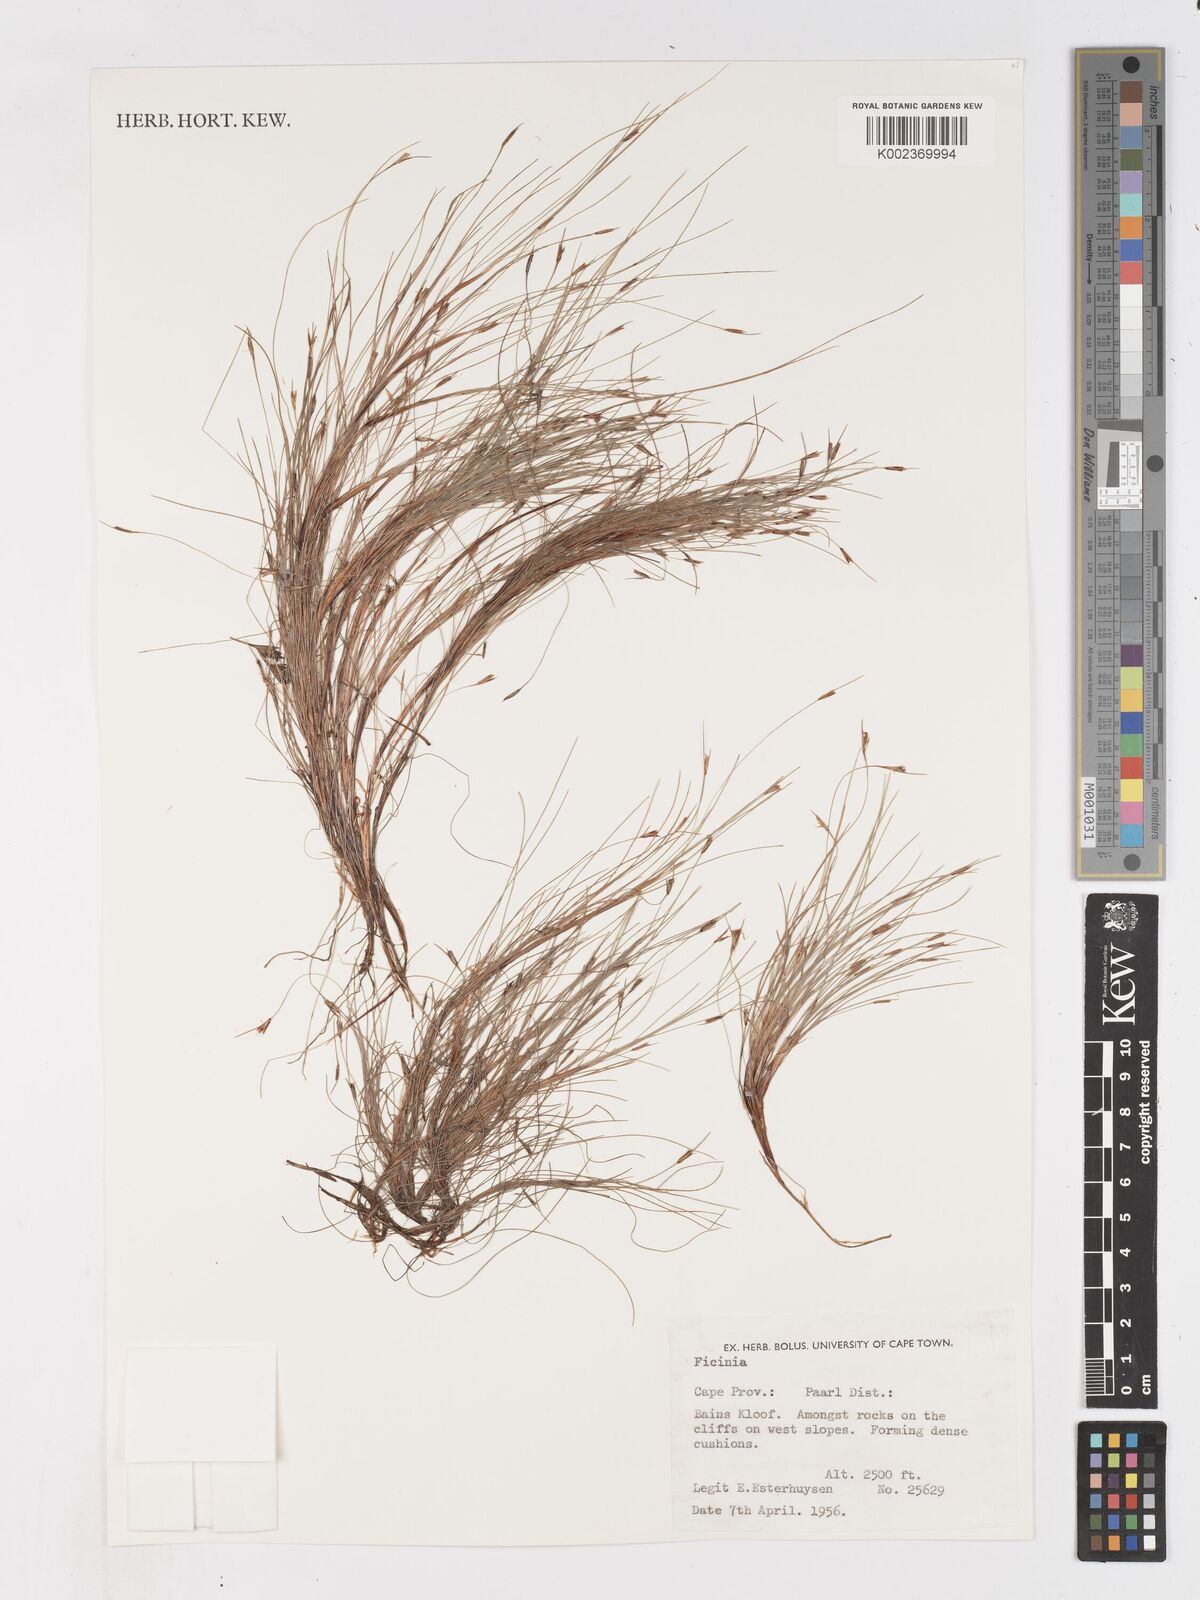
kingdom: Plantae
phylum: Tracheophyta
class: Liliopsida
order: Poales
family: Cyperaceae
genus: Ficinia
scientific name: Ficinia zeyheri
